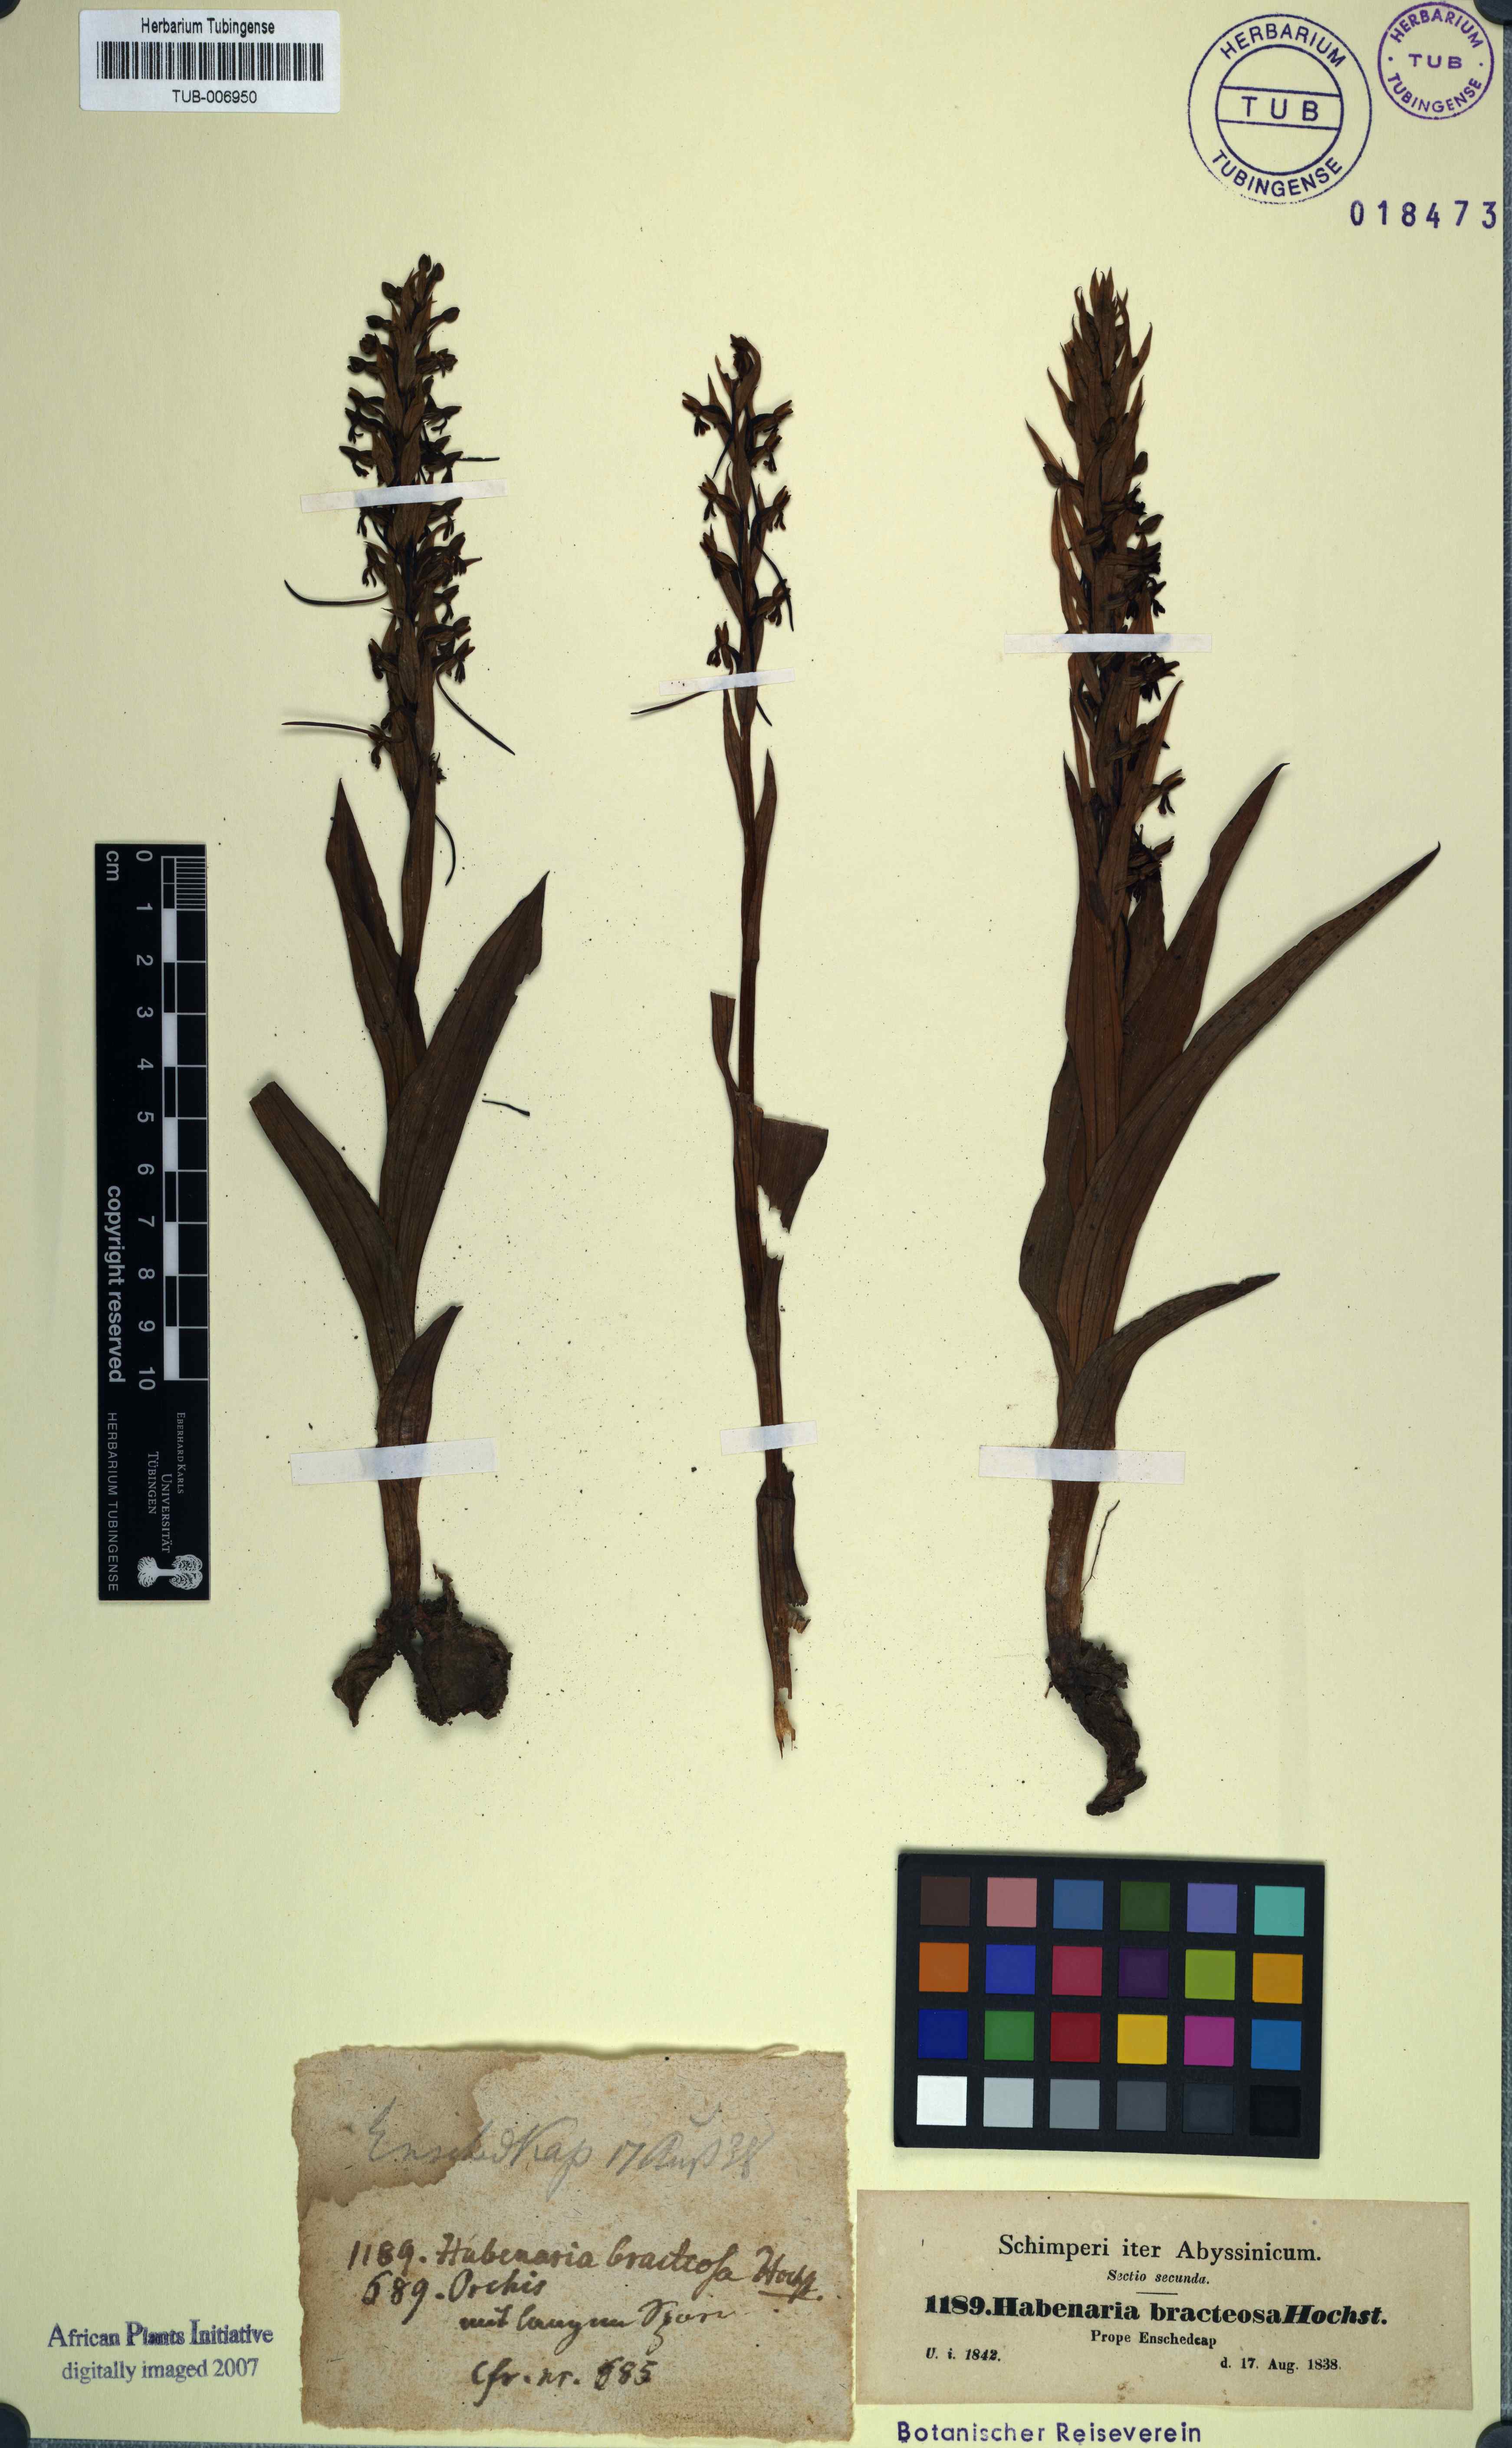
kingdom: Plantae
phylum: Tracheophyta
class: Liliopsida
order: Asparagales
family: Orchidaceae
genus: Habenaria
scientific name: Habenaria bracteosa
